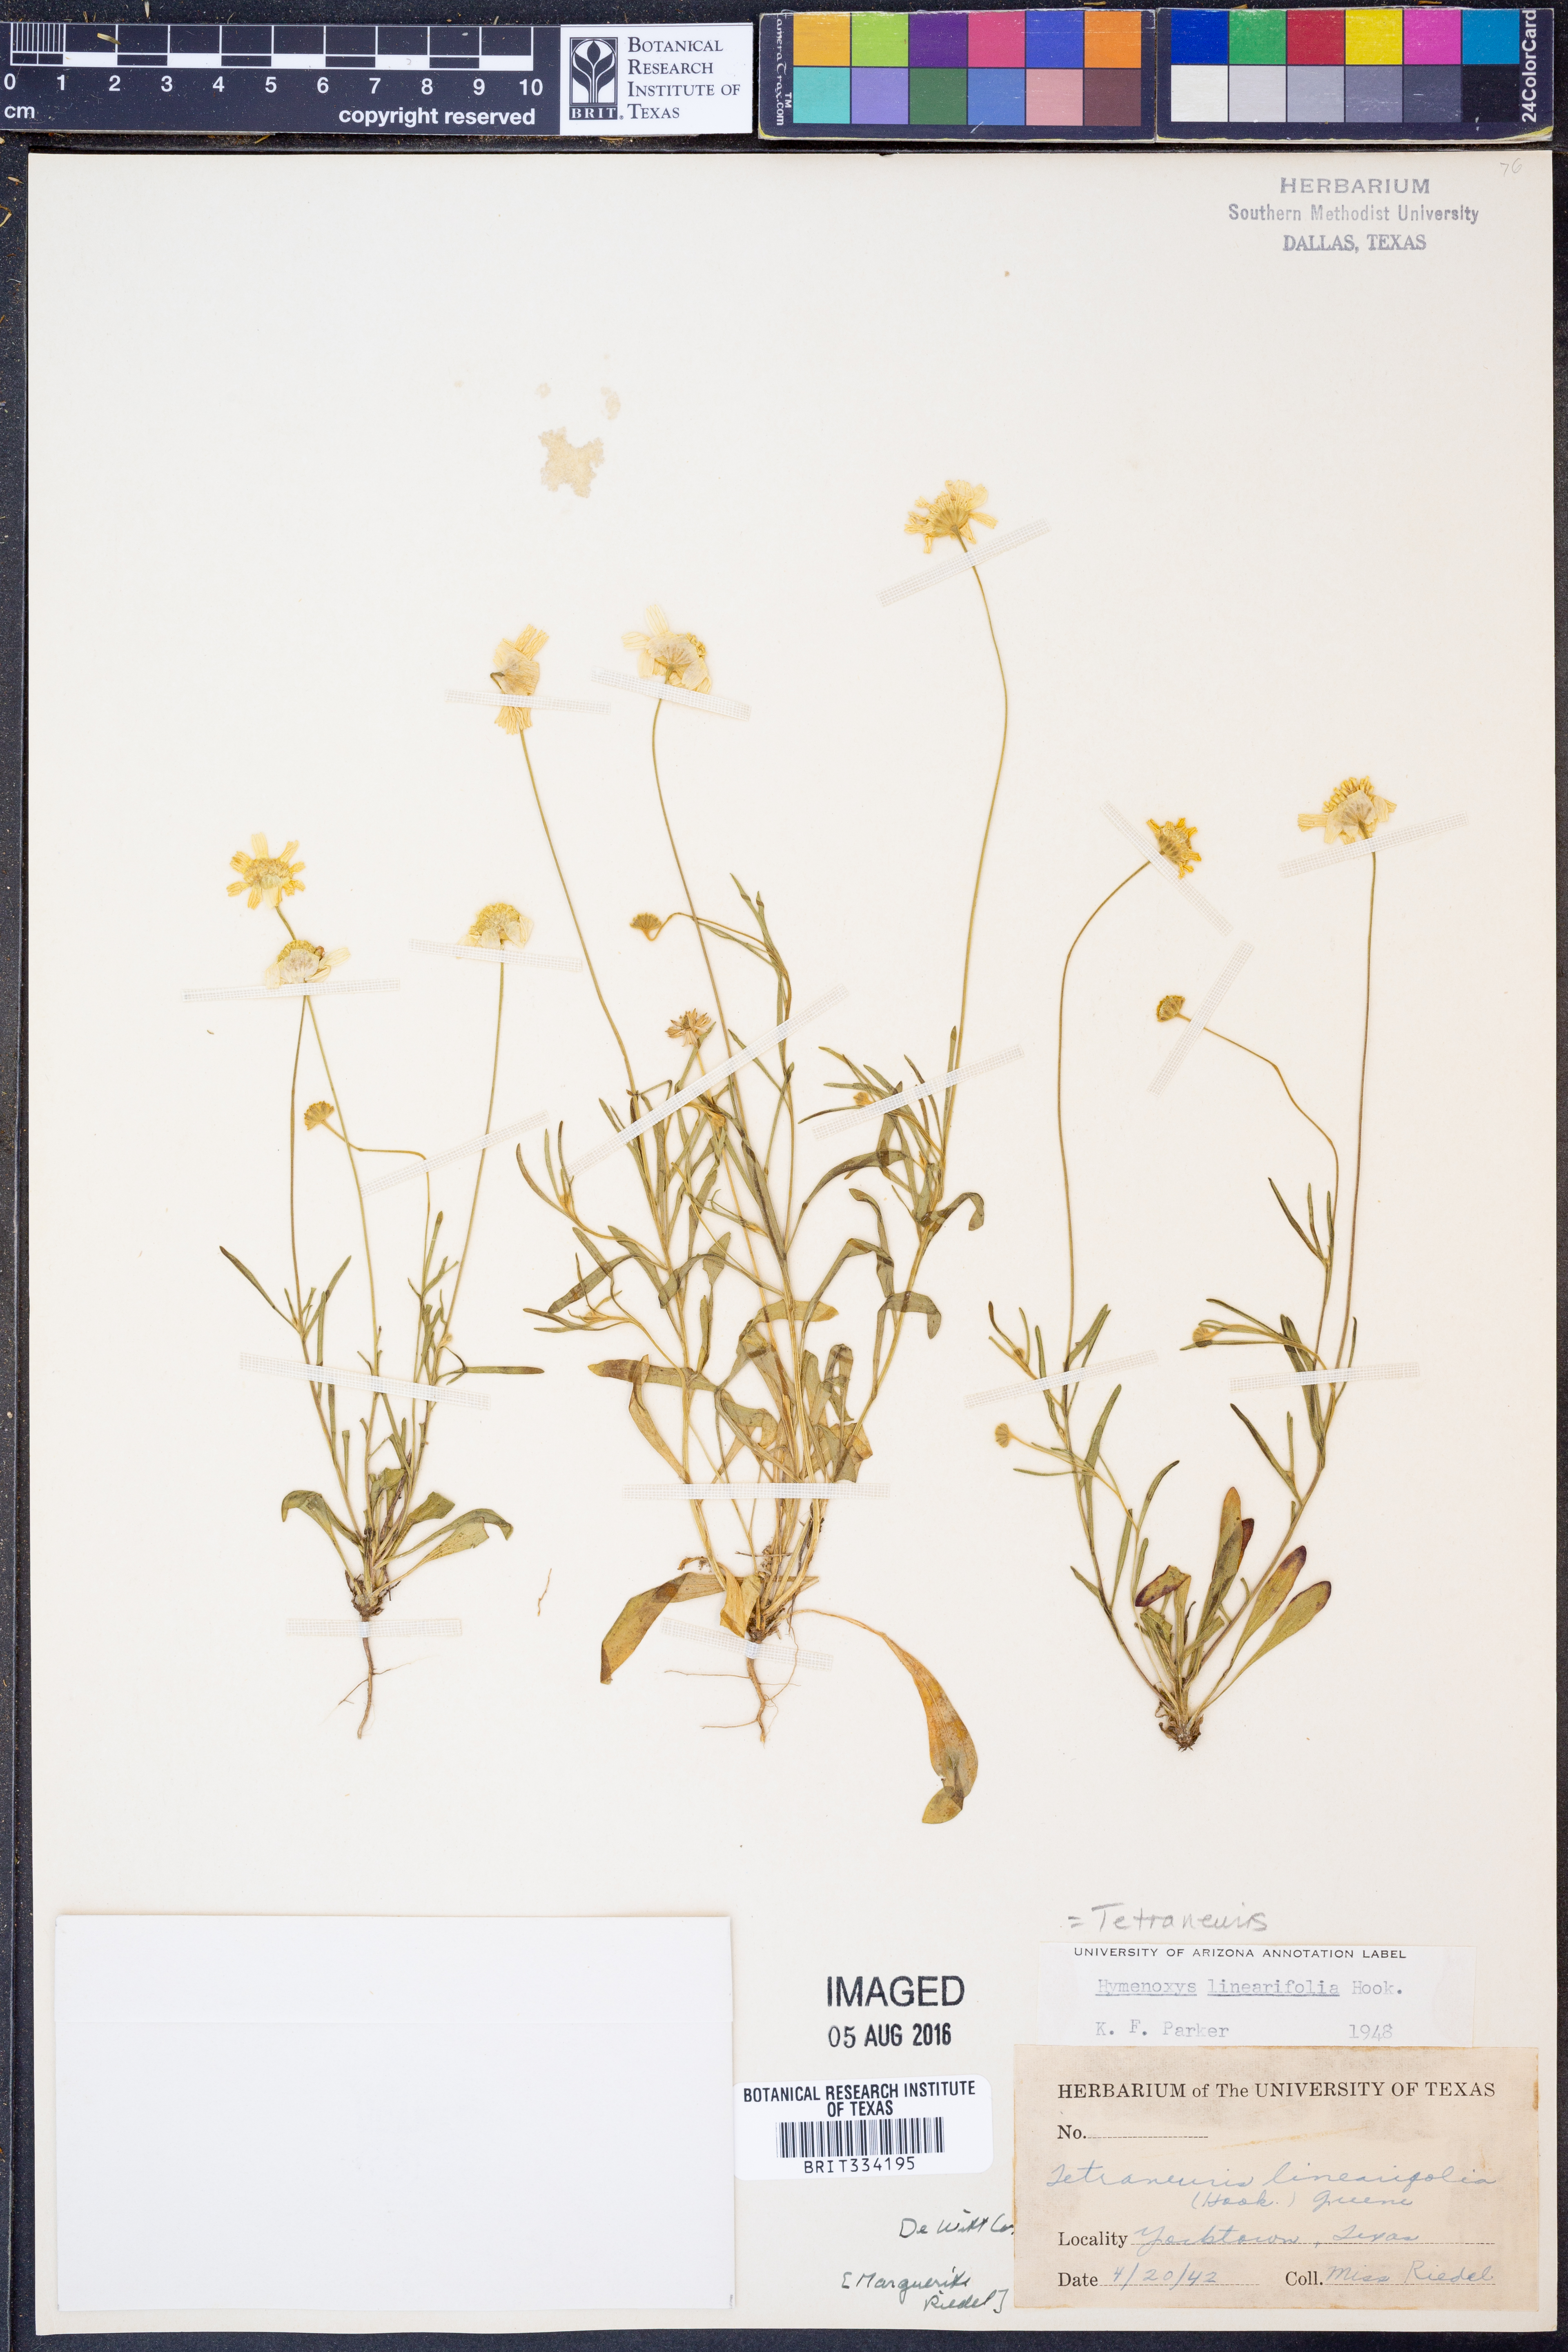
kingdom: Plantae
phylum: Tracheophyta
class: Magnoliopsida
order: Asterales
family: Asteraceae
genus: Tetraneuris
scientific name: Tetraneuris linearifolia
